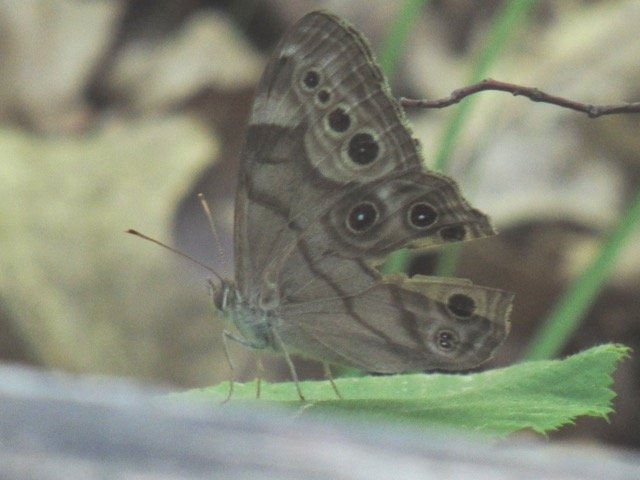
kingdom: Animalia
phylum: Arthropoda
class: Insecta
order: Lepidoptera
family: Nymphalidae
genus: Lethe
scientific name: Lethe anthedon
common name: Northern Pearly-Eye
